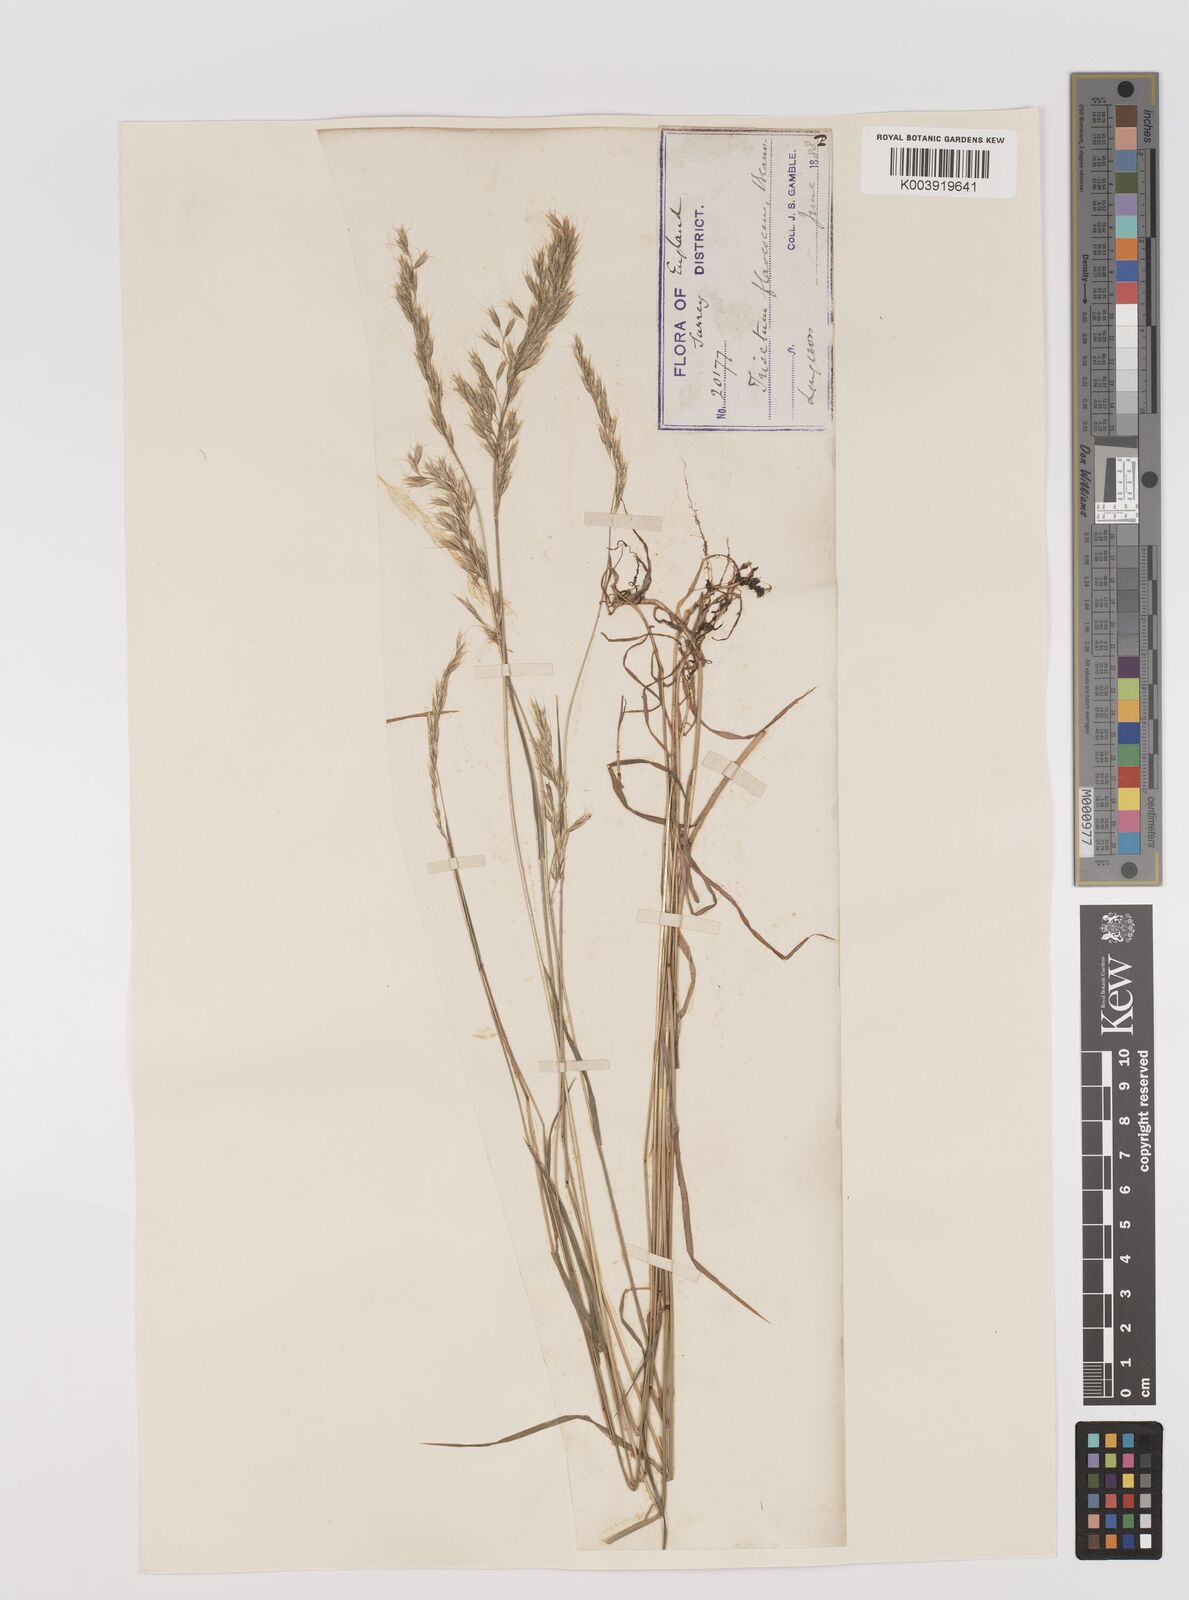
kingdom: Plantae
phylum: Tracheophyta
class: Liliopsida
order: Poales
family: Poaceae
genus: Trisetum
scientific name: Trisetum flavescens
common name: Yellow oat-grass
